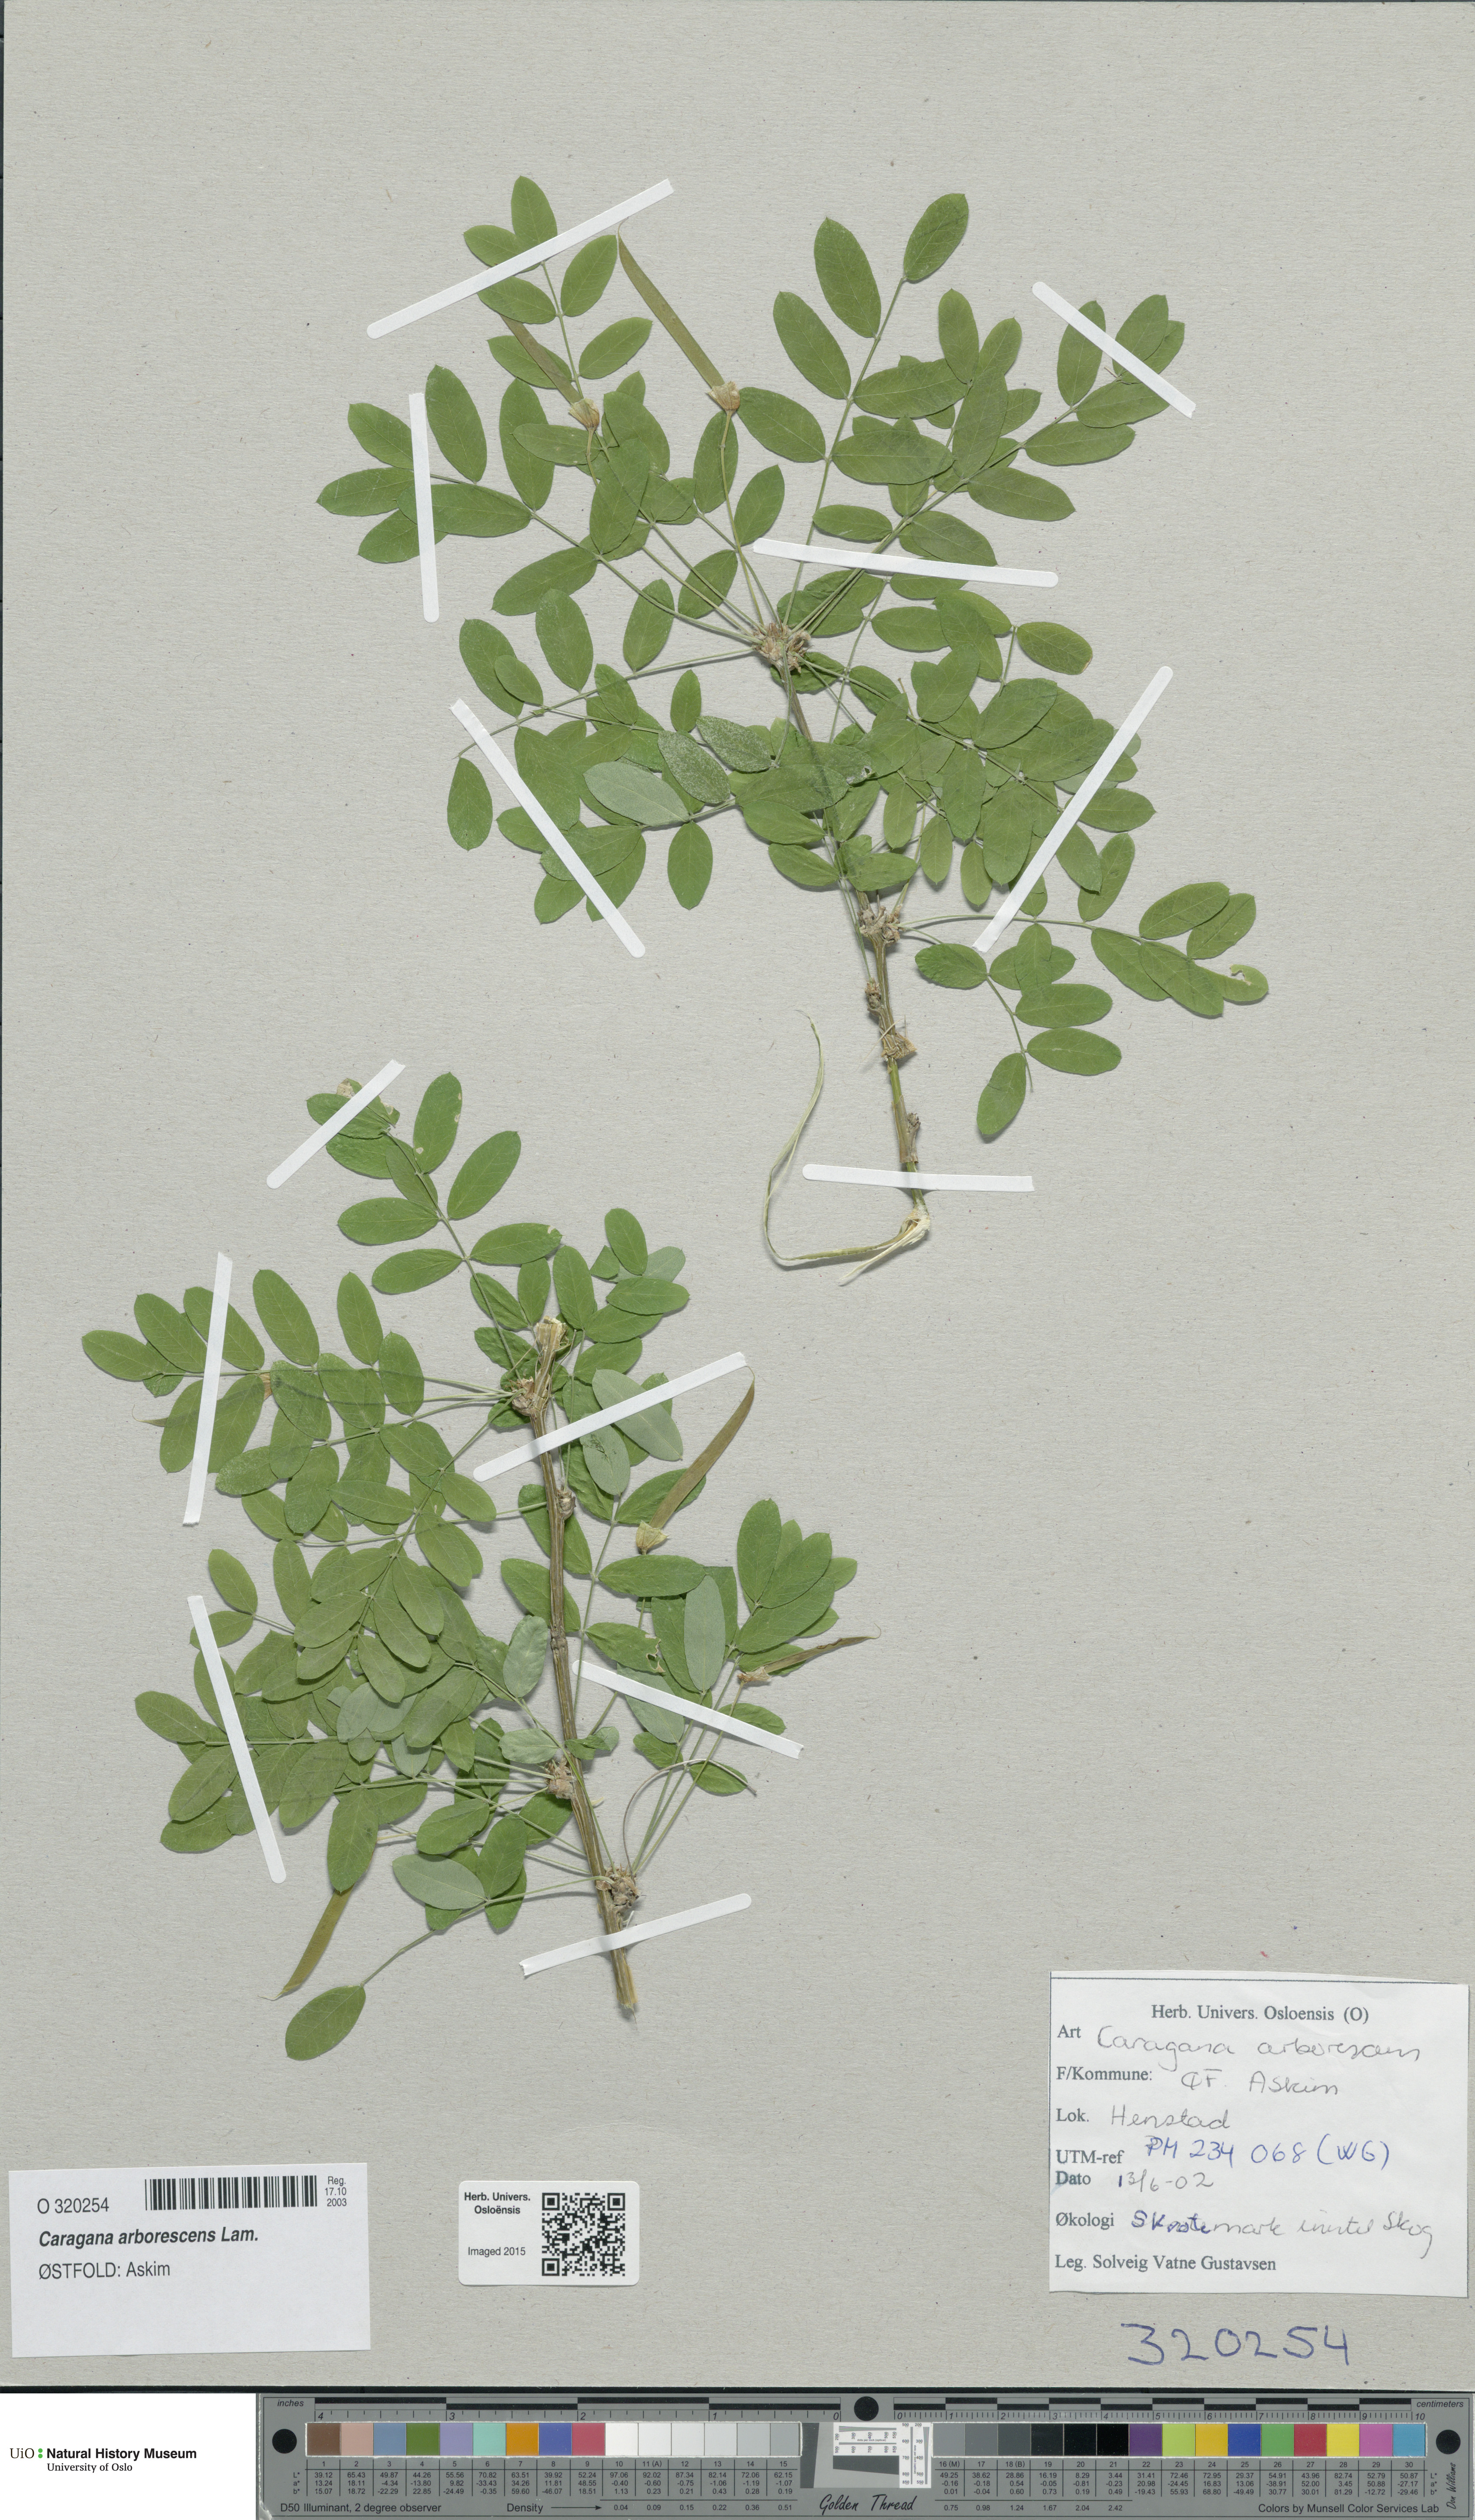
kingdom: Plantae
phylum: Tracheophyta
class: Magnoliopsida
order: Fabales
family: Fabaceae
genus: Caragana
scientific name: Caragana arborescens
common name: Siberian peashrub
